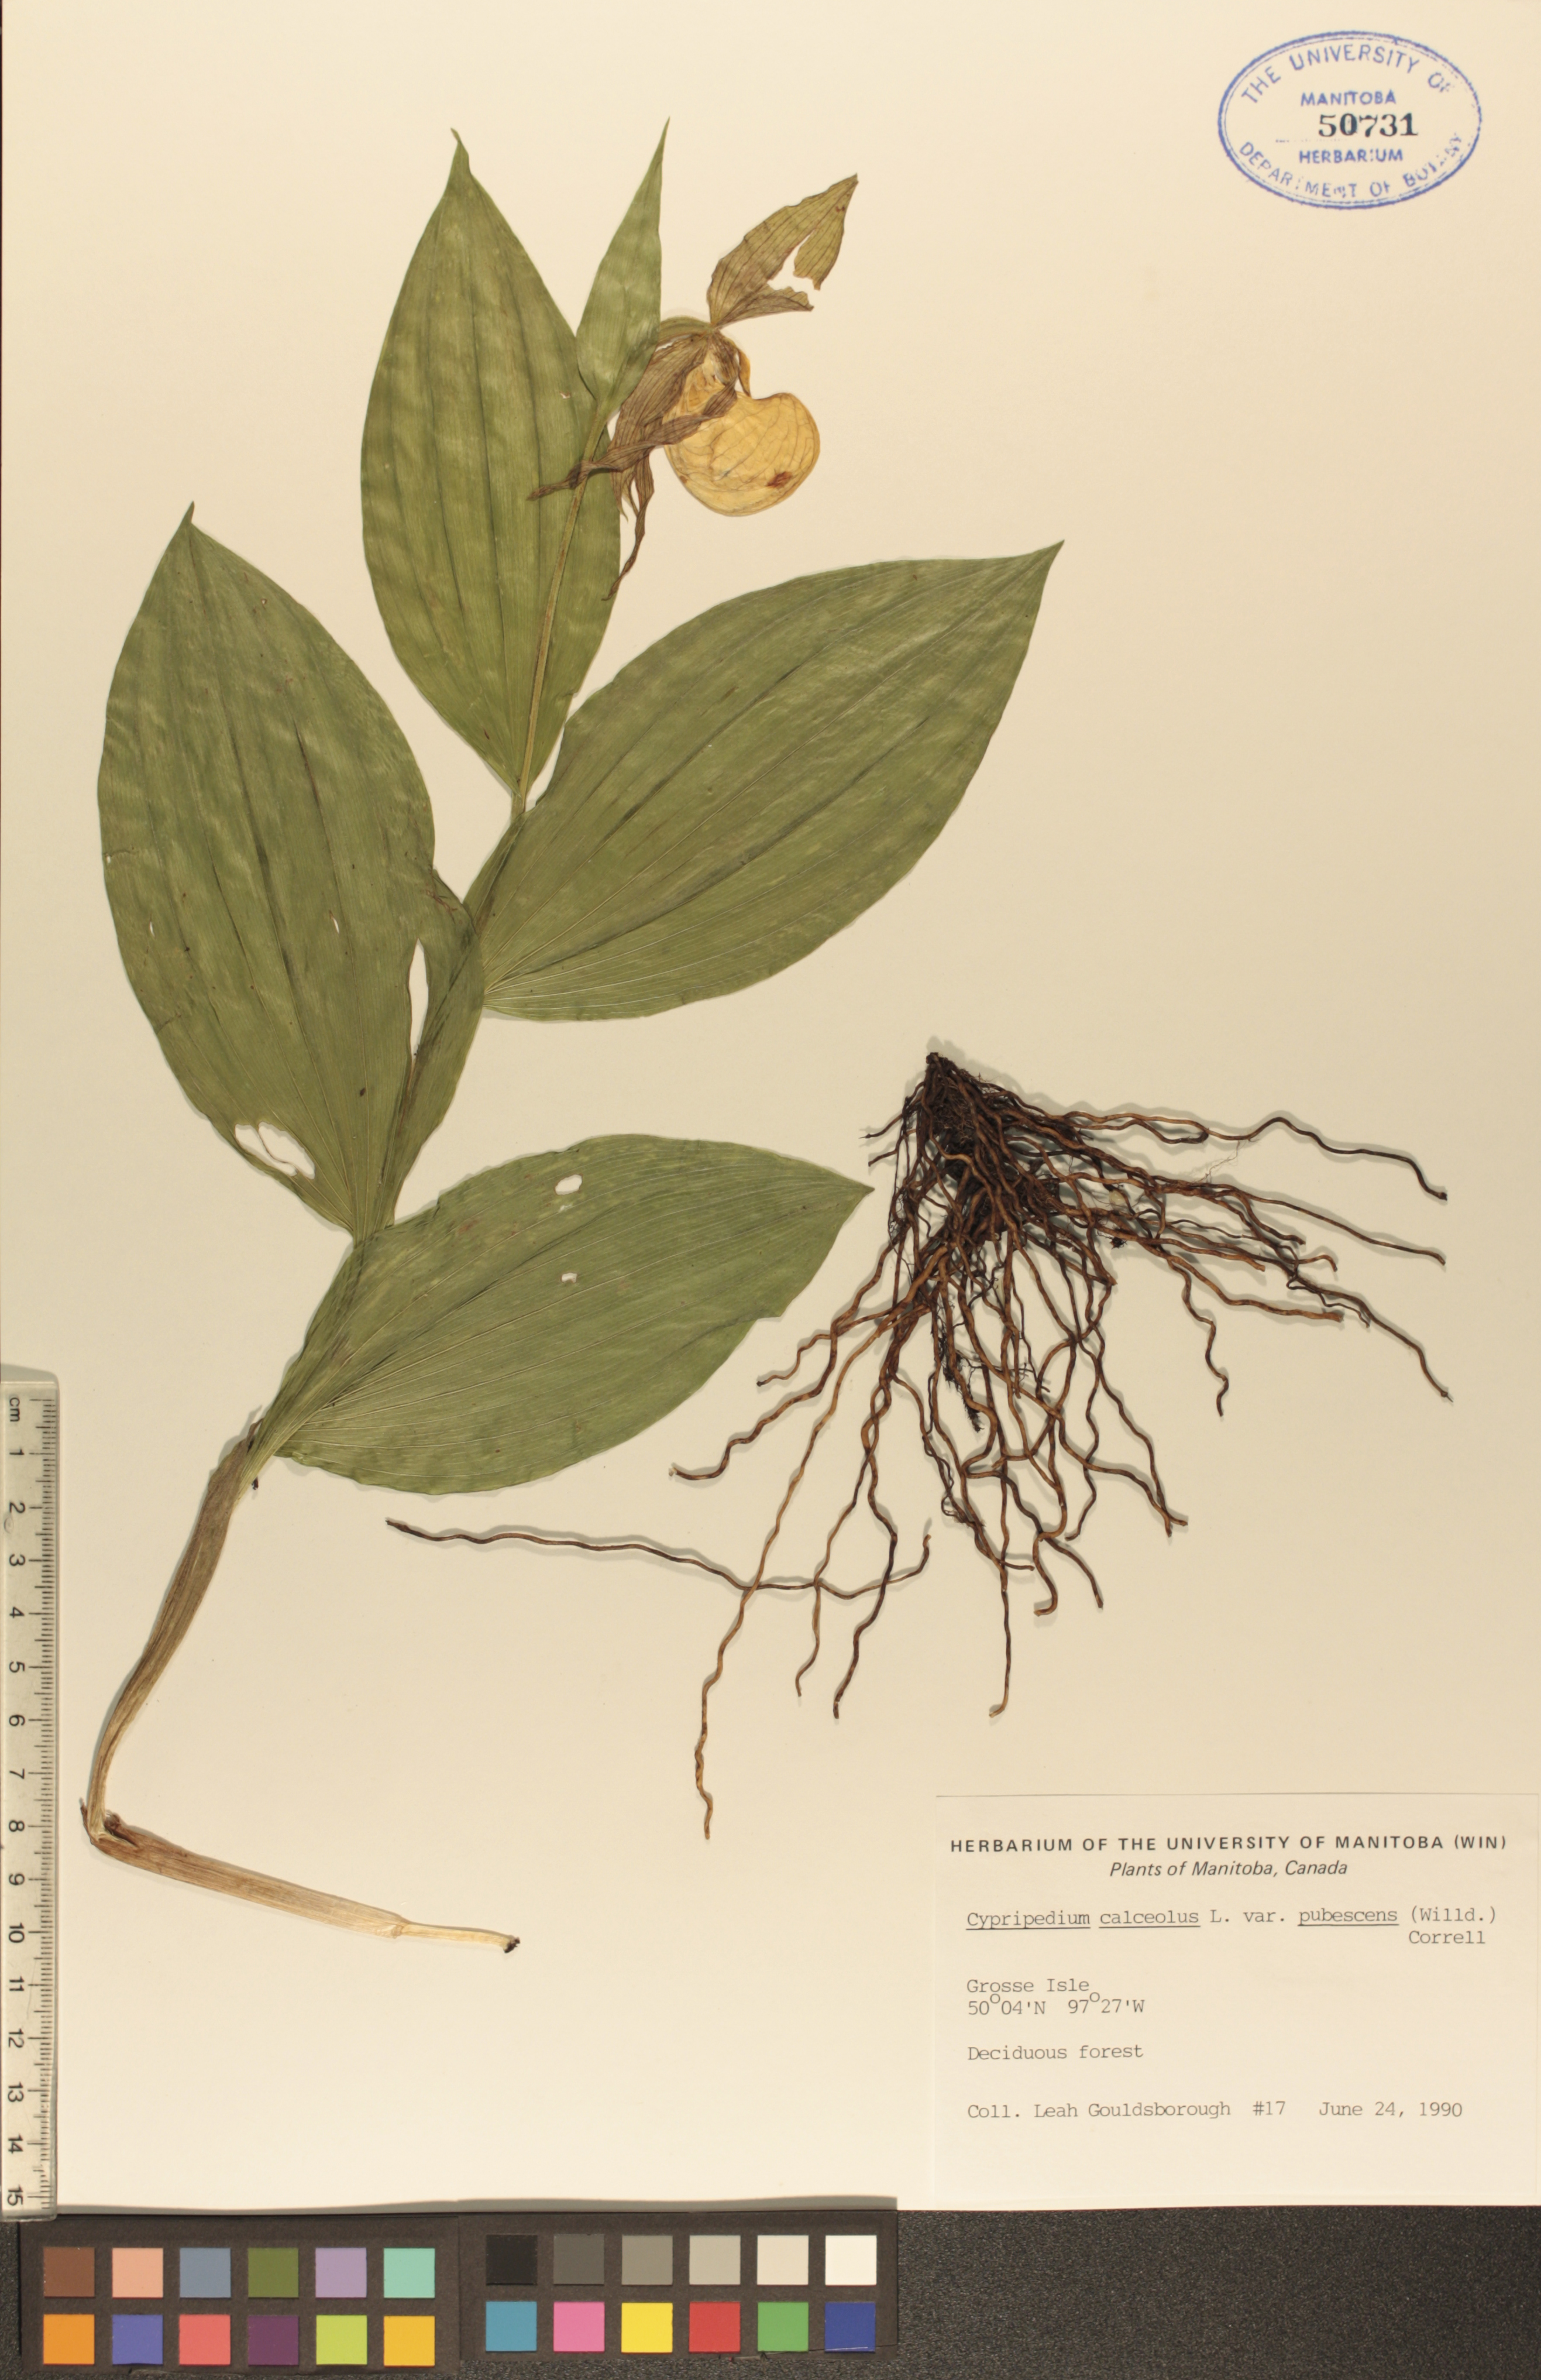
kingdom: Plantae
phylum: Tracheophyta
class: Liliopsida
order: Asparagales
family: Orchidaceae
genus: Cypripedium
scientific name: Cypripedium parviflorum
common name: American yellow lady's-slipper
